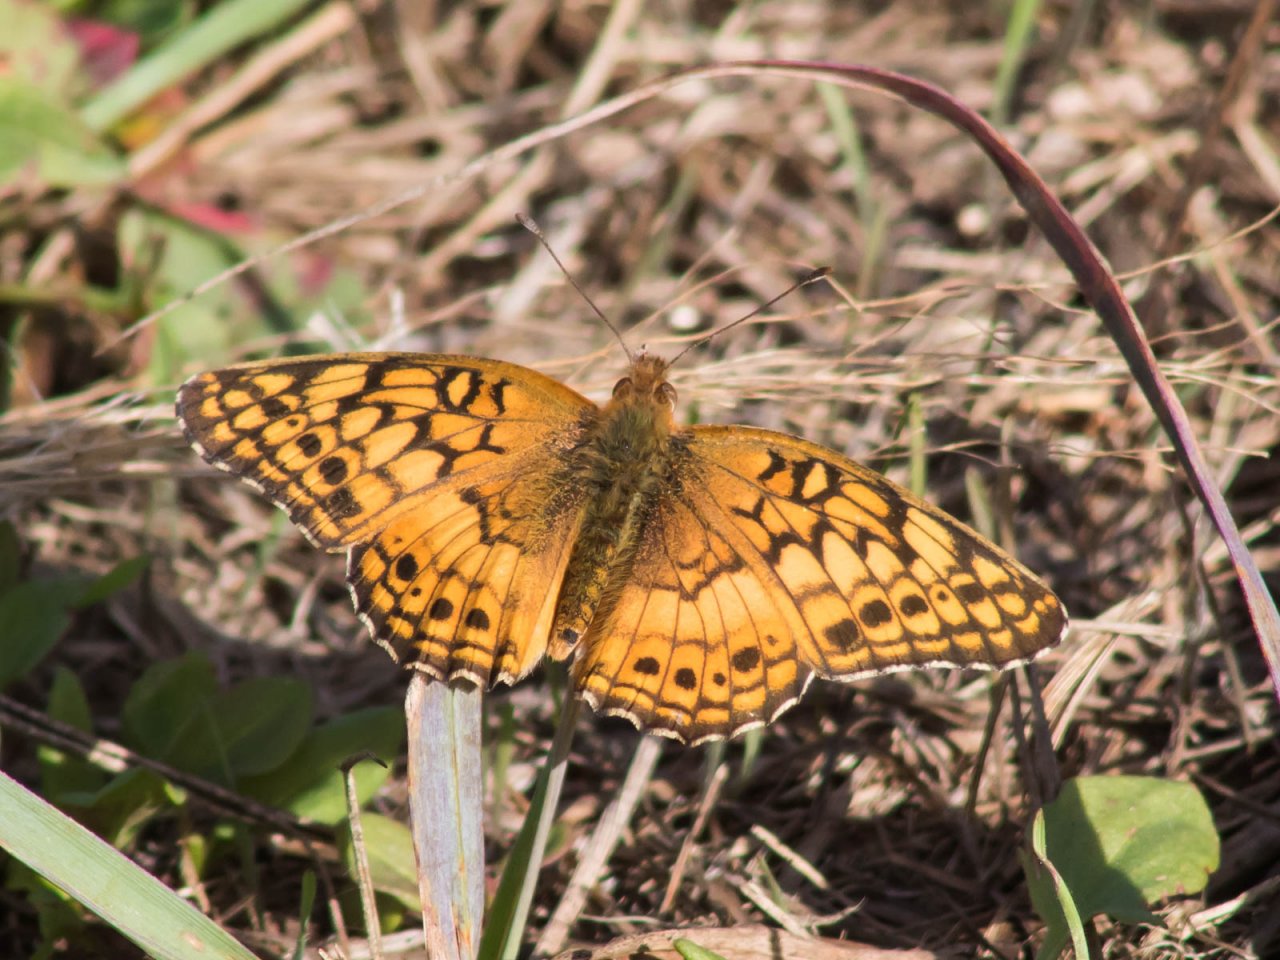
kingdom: Animalia
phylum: Arthropoda
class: Insecta
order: Lepidoptera
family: Nymphalidae
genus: Euptoieta
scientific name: Euptoieta claudia
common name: Variegated Fritillary
